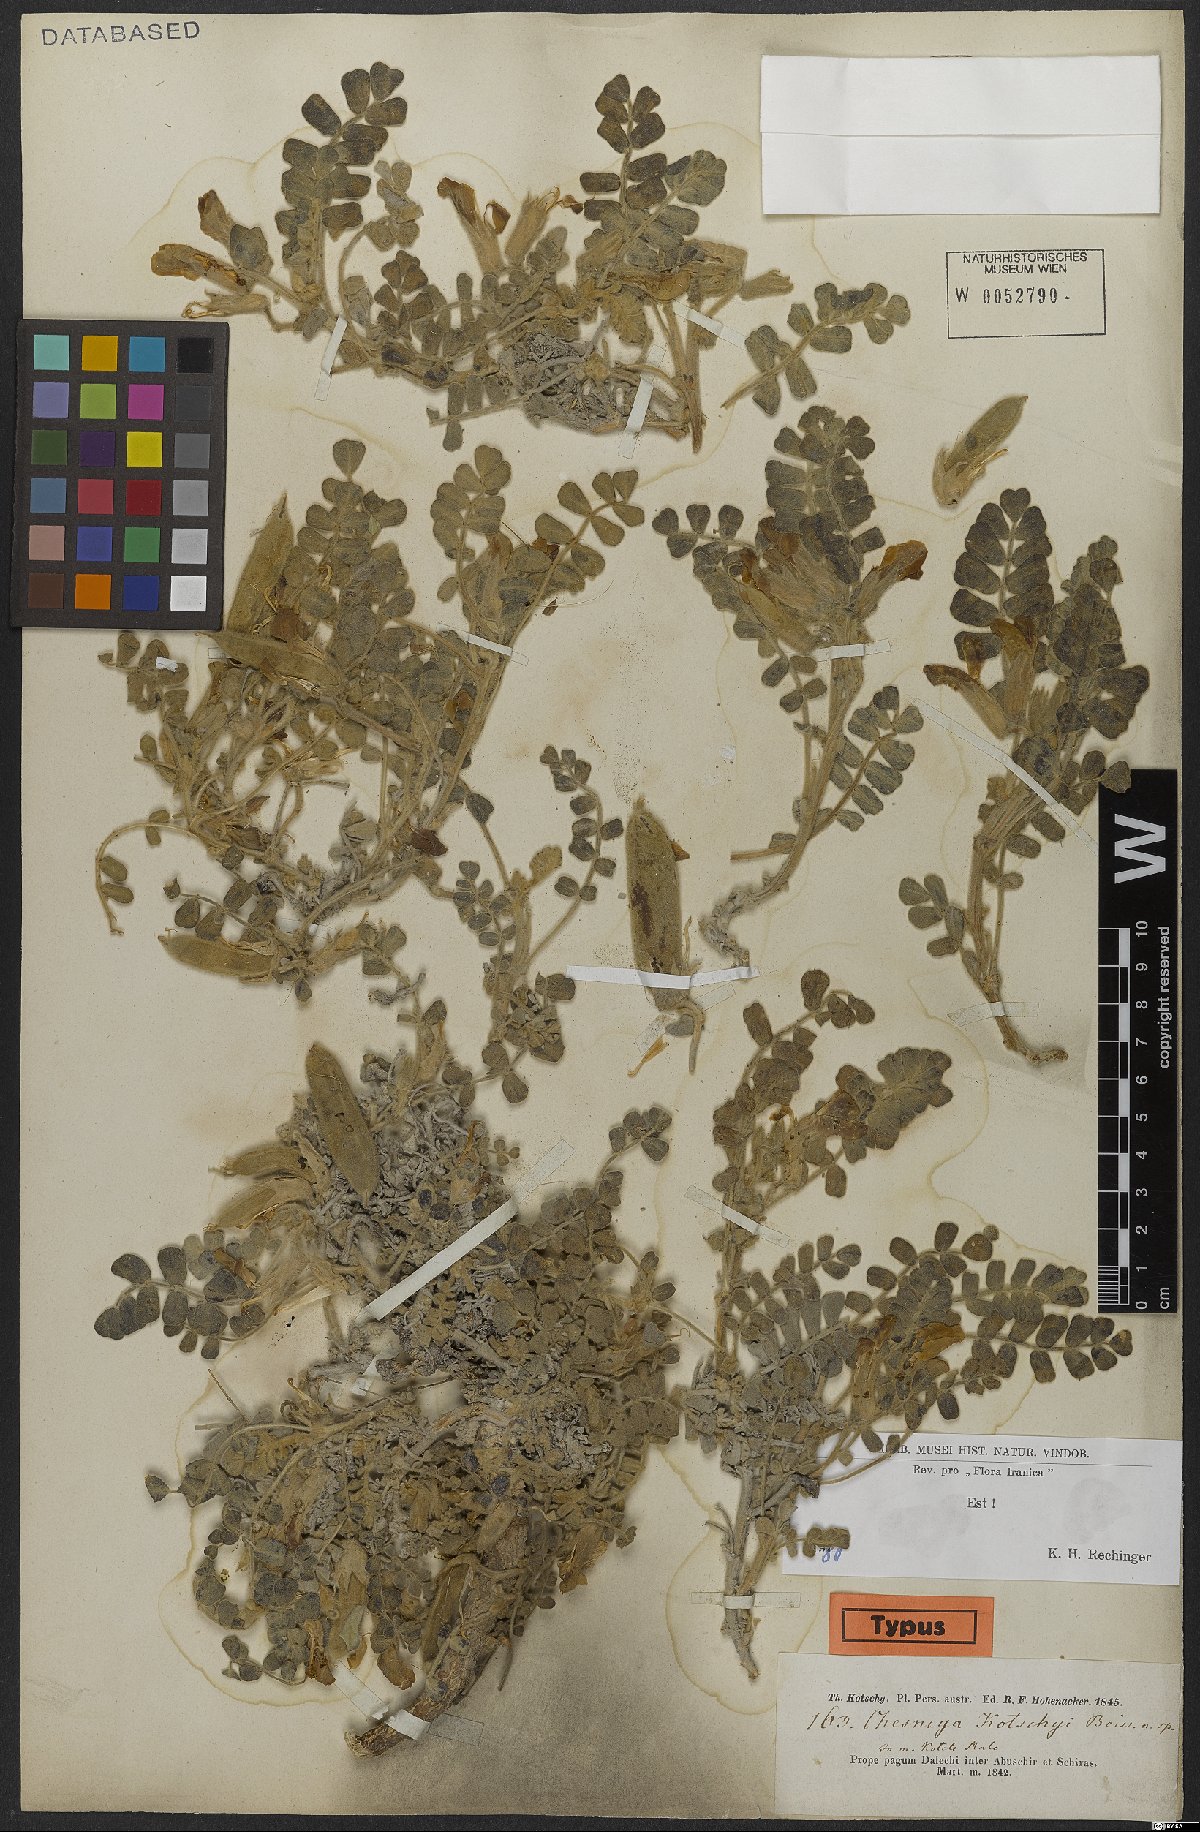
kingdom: Plantae
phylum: Tracheophyta
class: Magnoliopsida
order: Fabales
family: Fabaceae
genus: Chesneya
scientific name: Chesneya kotschyi
